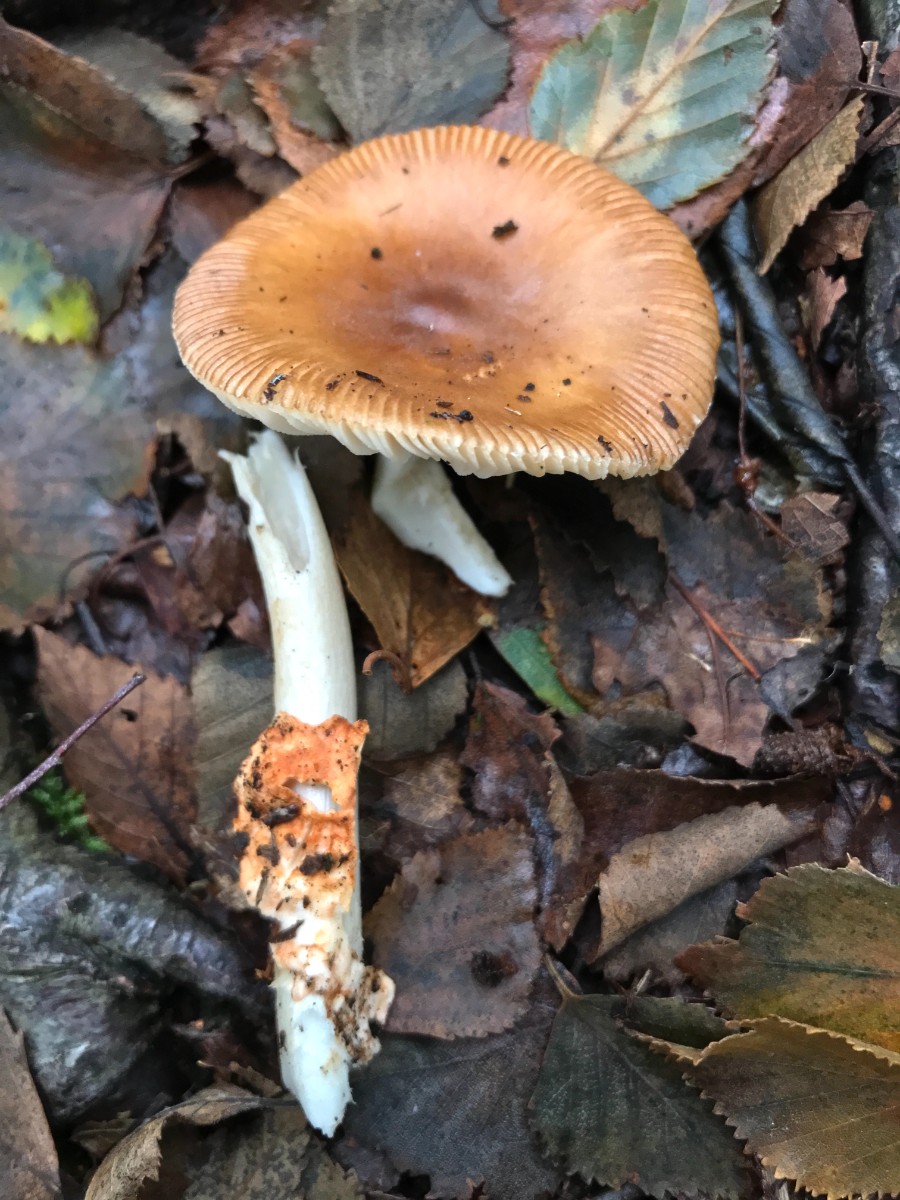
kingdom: Fungi
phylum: Basidiomycota
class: Agaricomycetes
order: Agaricales
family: Amanitaceae
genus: Amanita
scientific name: Amanita fulva
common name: brun kam-fluesvamp
